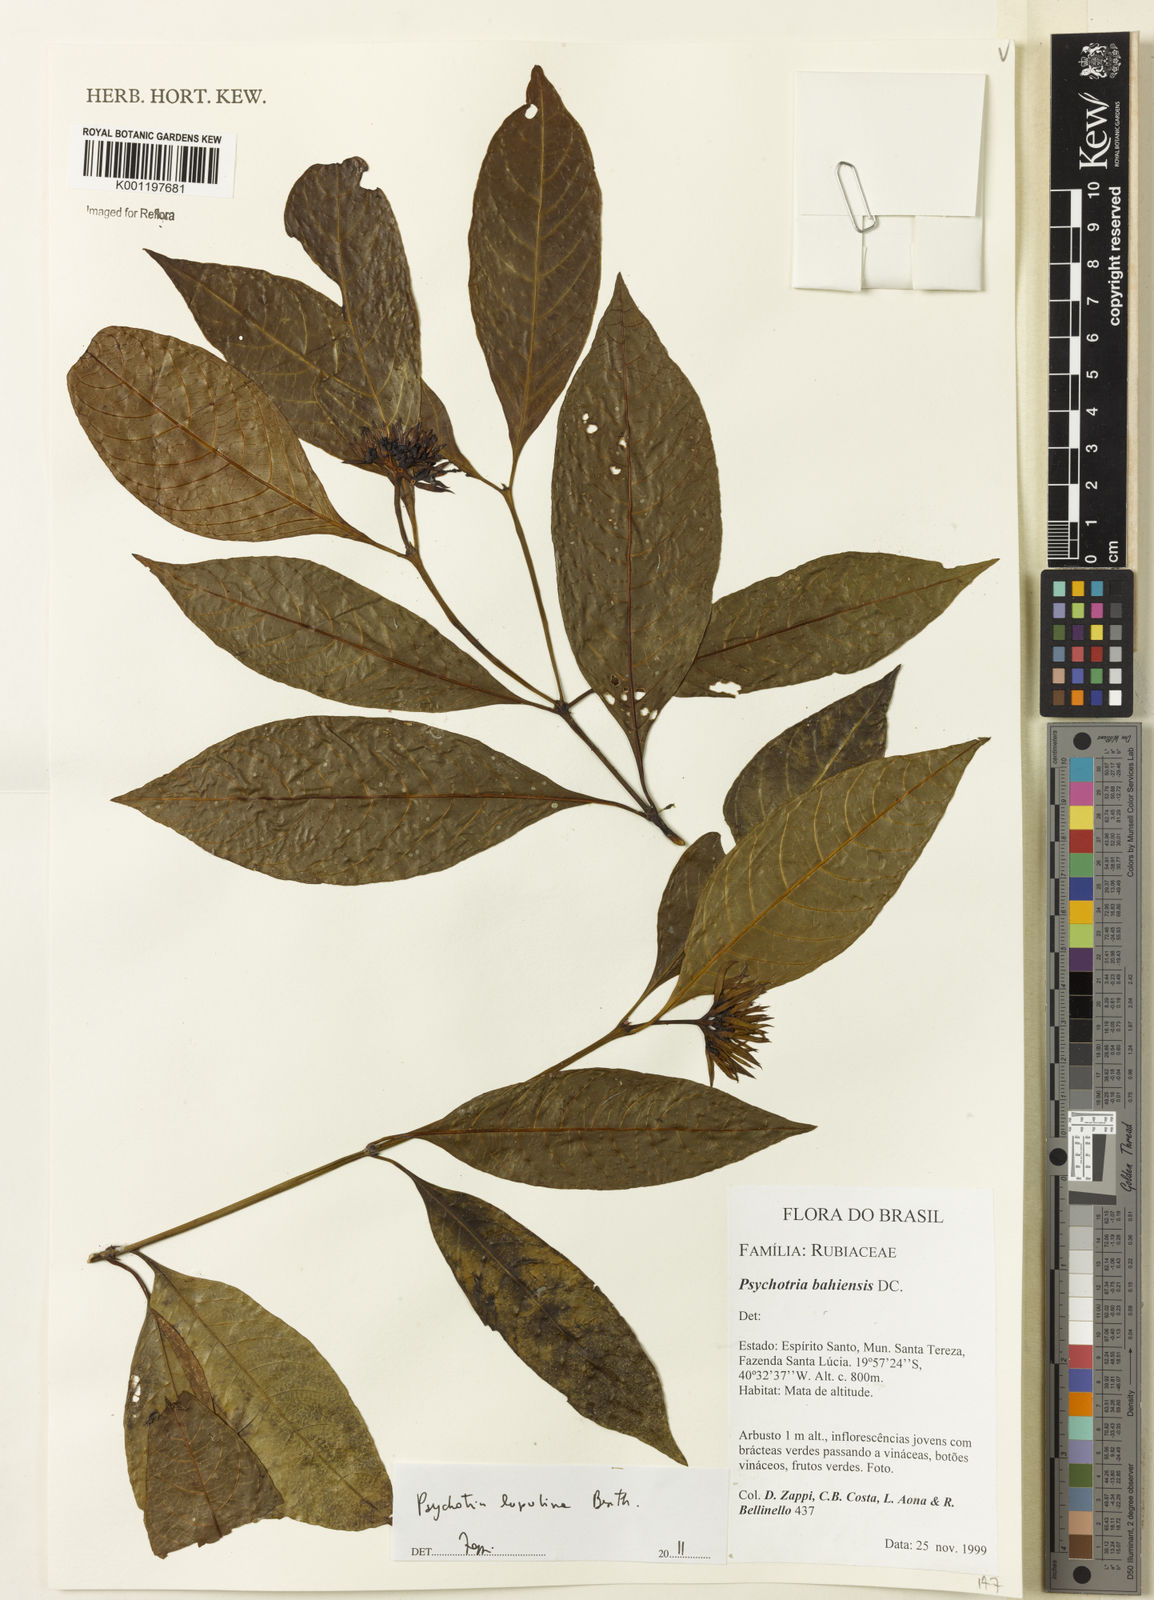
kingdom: Plantae
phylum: Tracheophyta
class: Magnoliopsida
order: Gentianales
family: Rubiaceae
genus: Palicourea
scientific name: Palicourea justiciifolia
